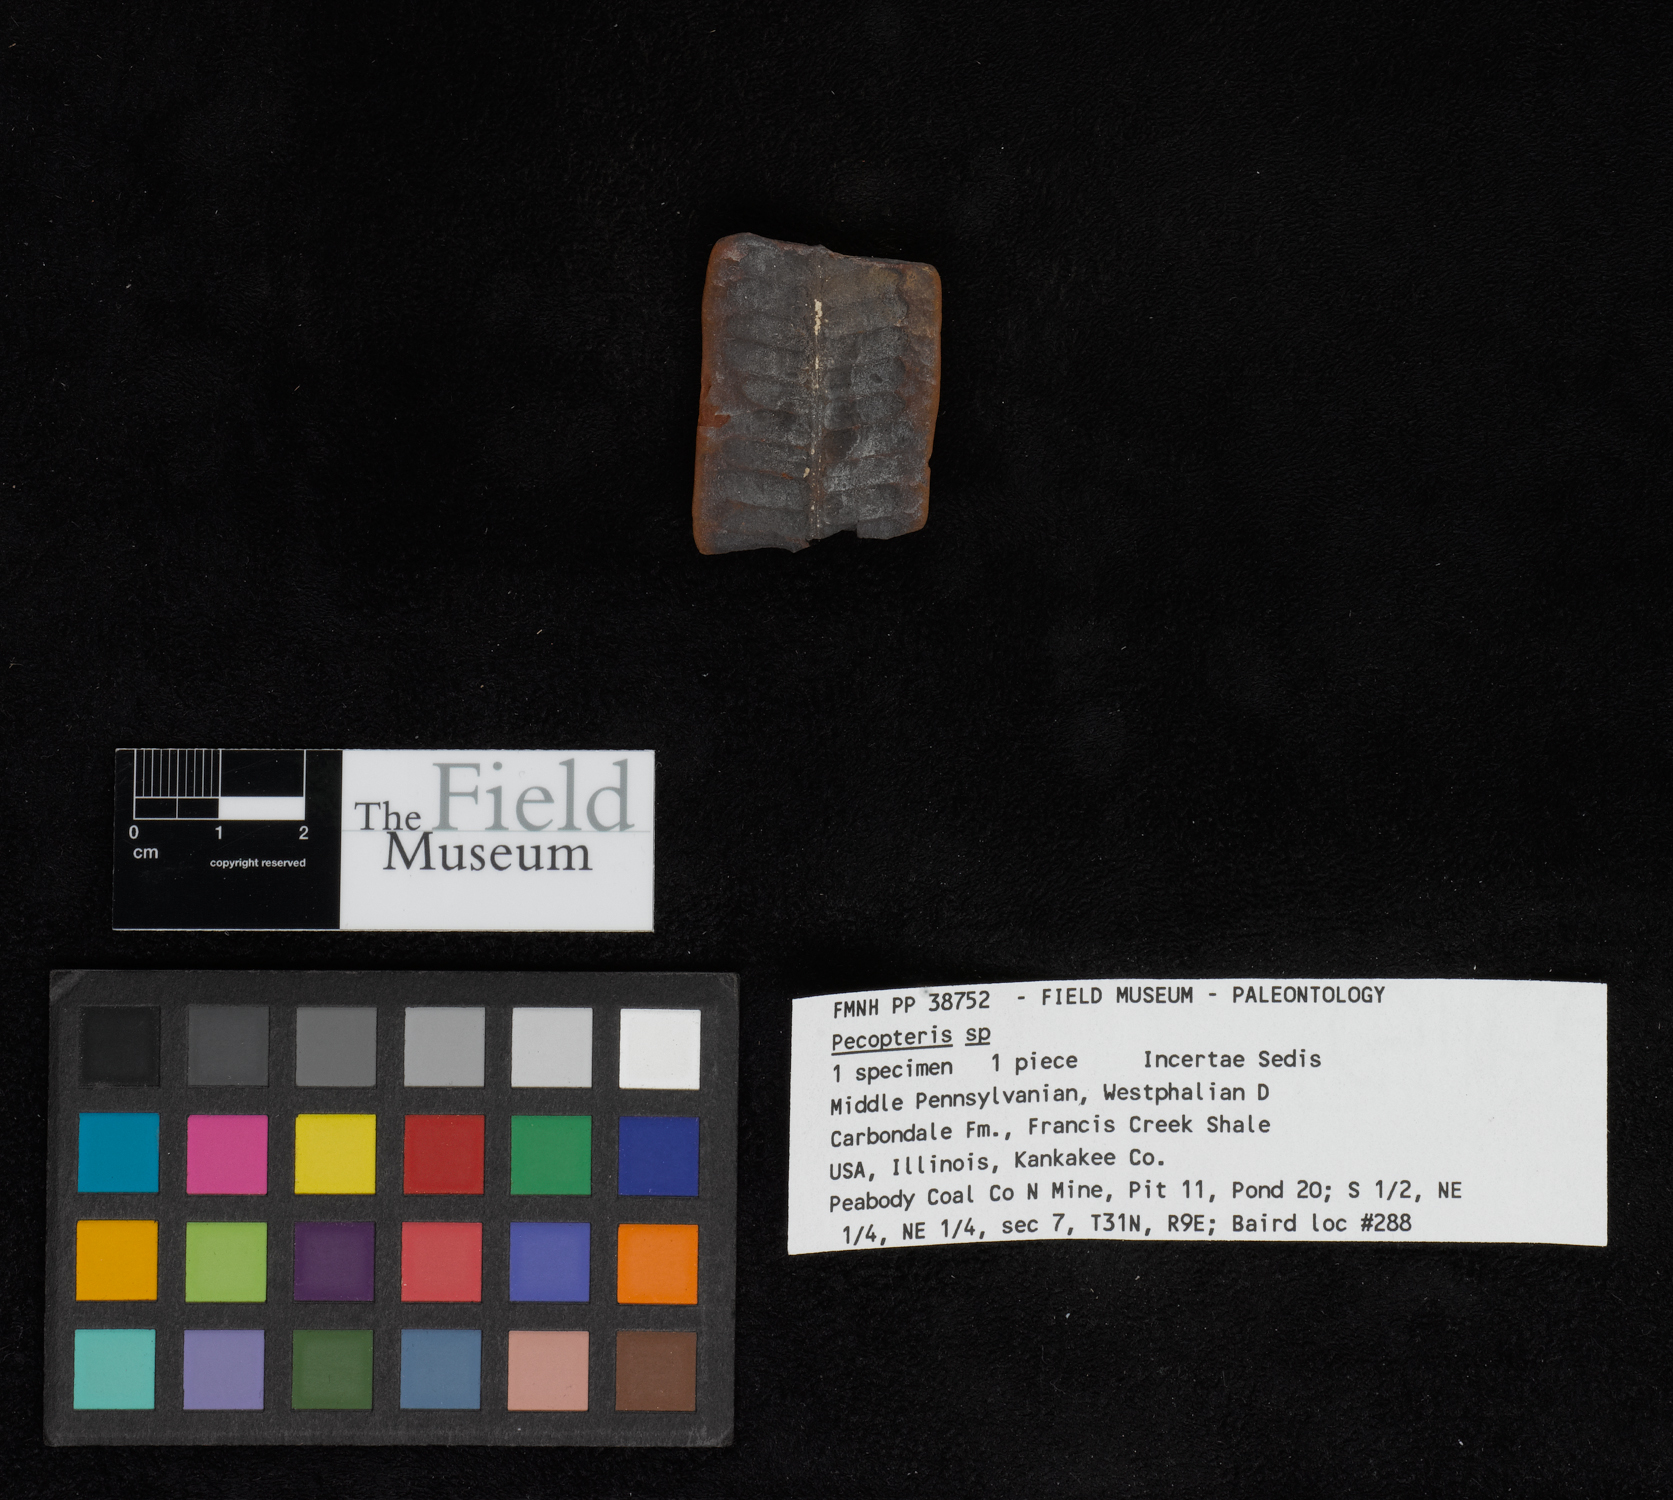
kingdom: Plantae
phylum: Tracheophyta
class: Polypodiopsida
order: Marattiales
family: Asterothecaceae
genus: Pecopteris
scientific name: Pecopteris
